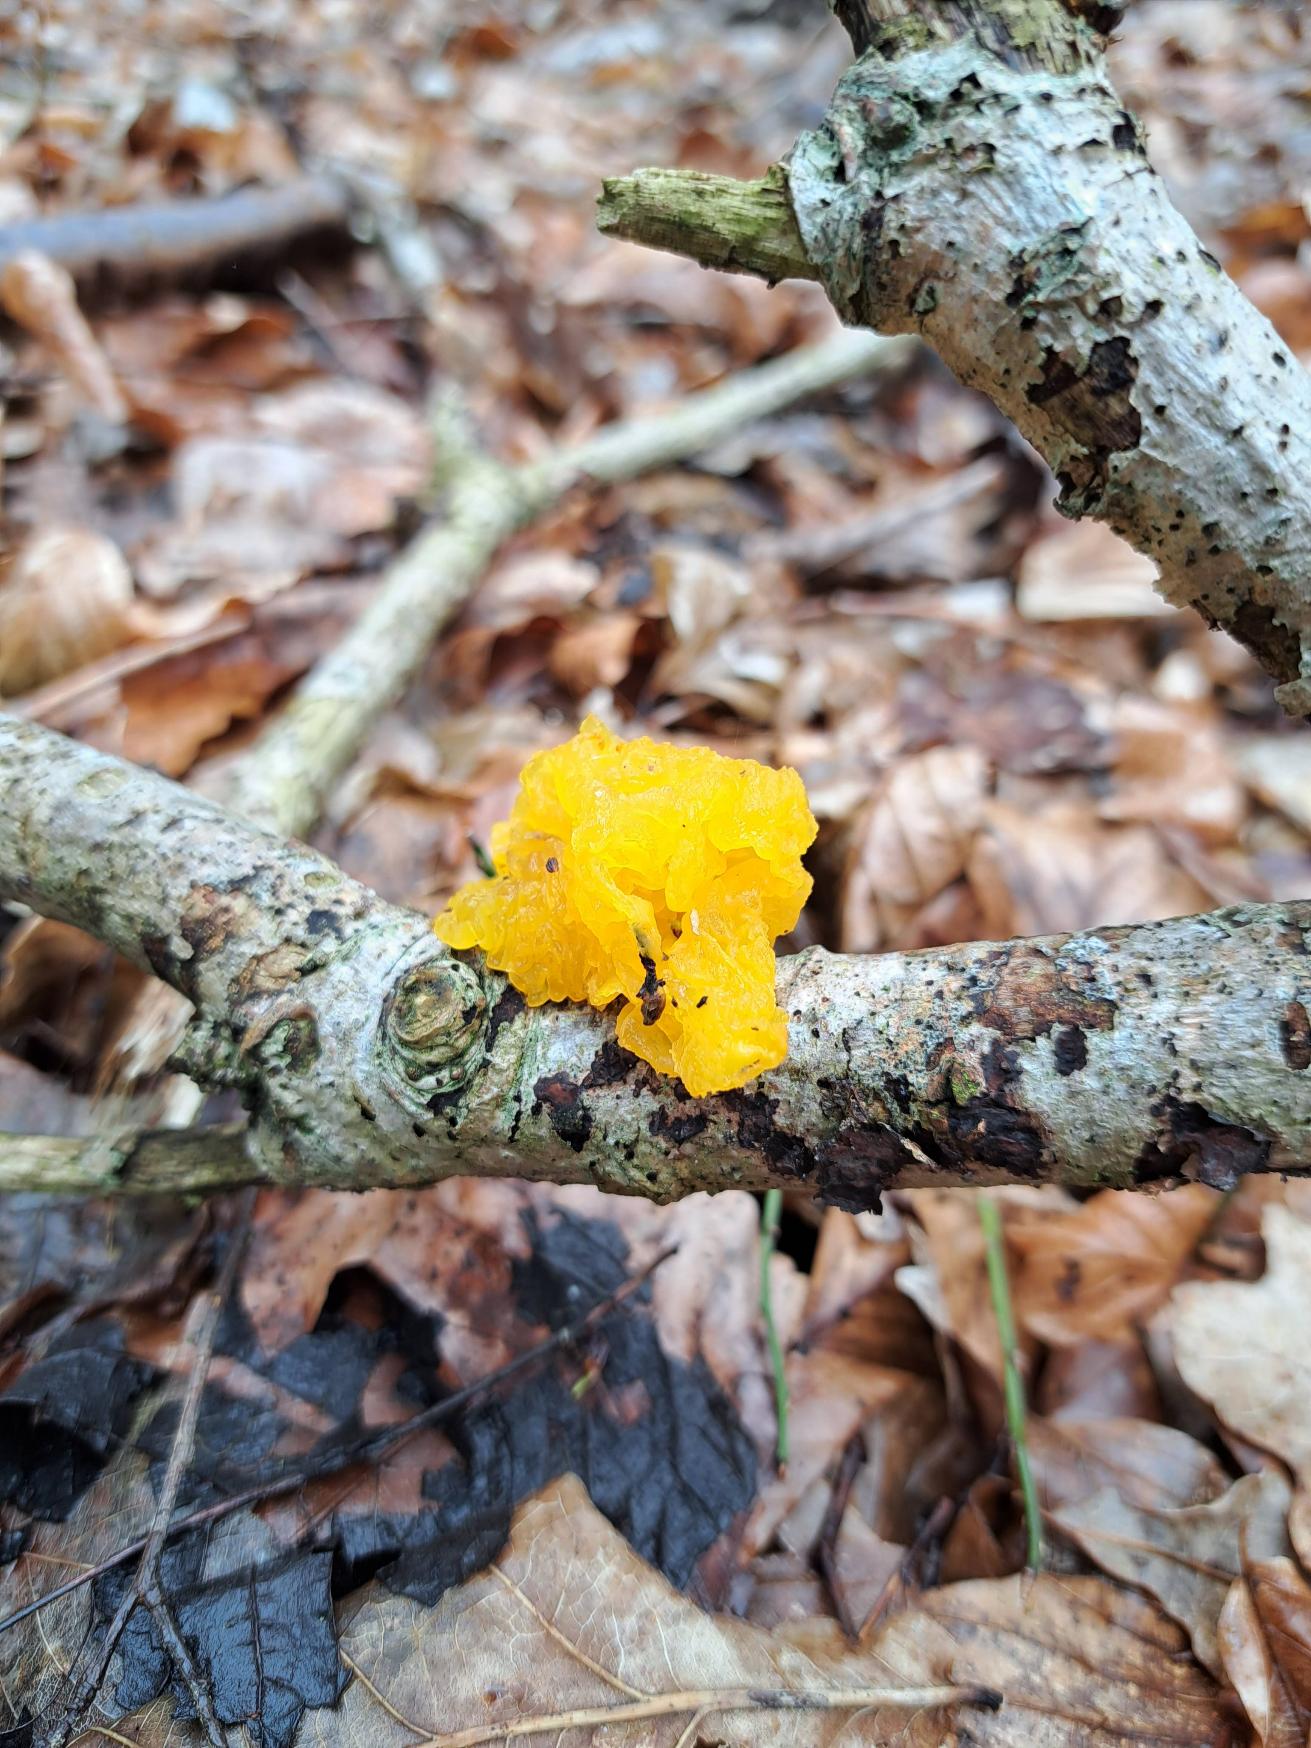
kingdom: Fungi
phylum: Basidiomycota
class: Tremellomycetes
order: Tremellales
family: Tremellaceae
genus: Tremella
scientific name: Tremella mesenterica
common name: Gul bævresvamp
